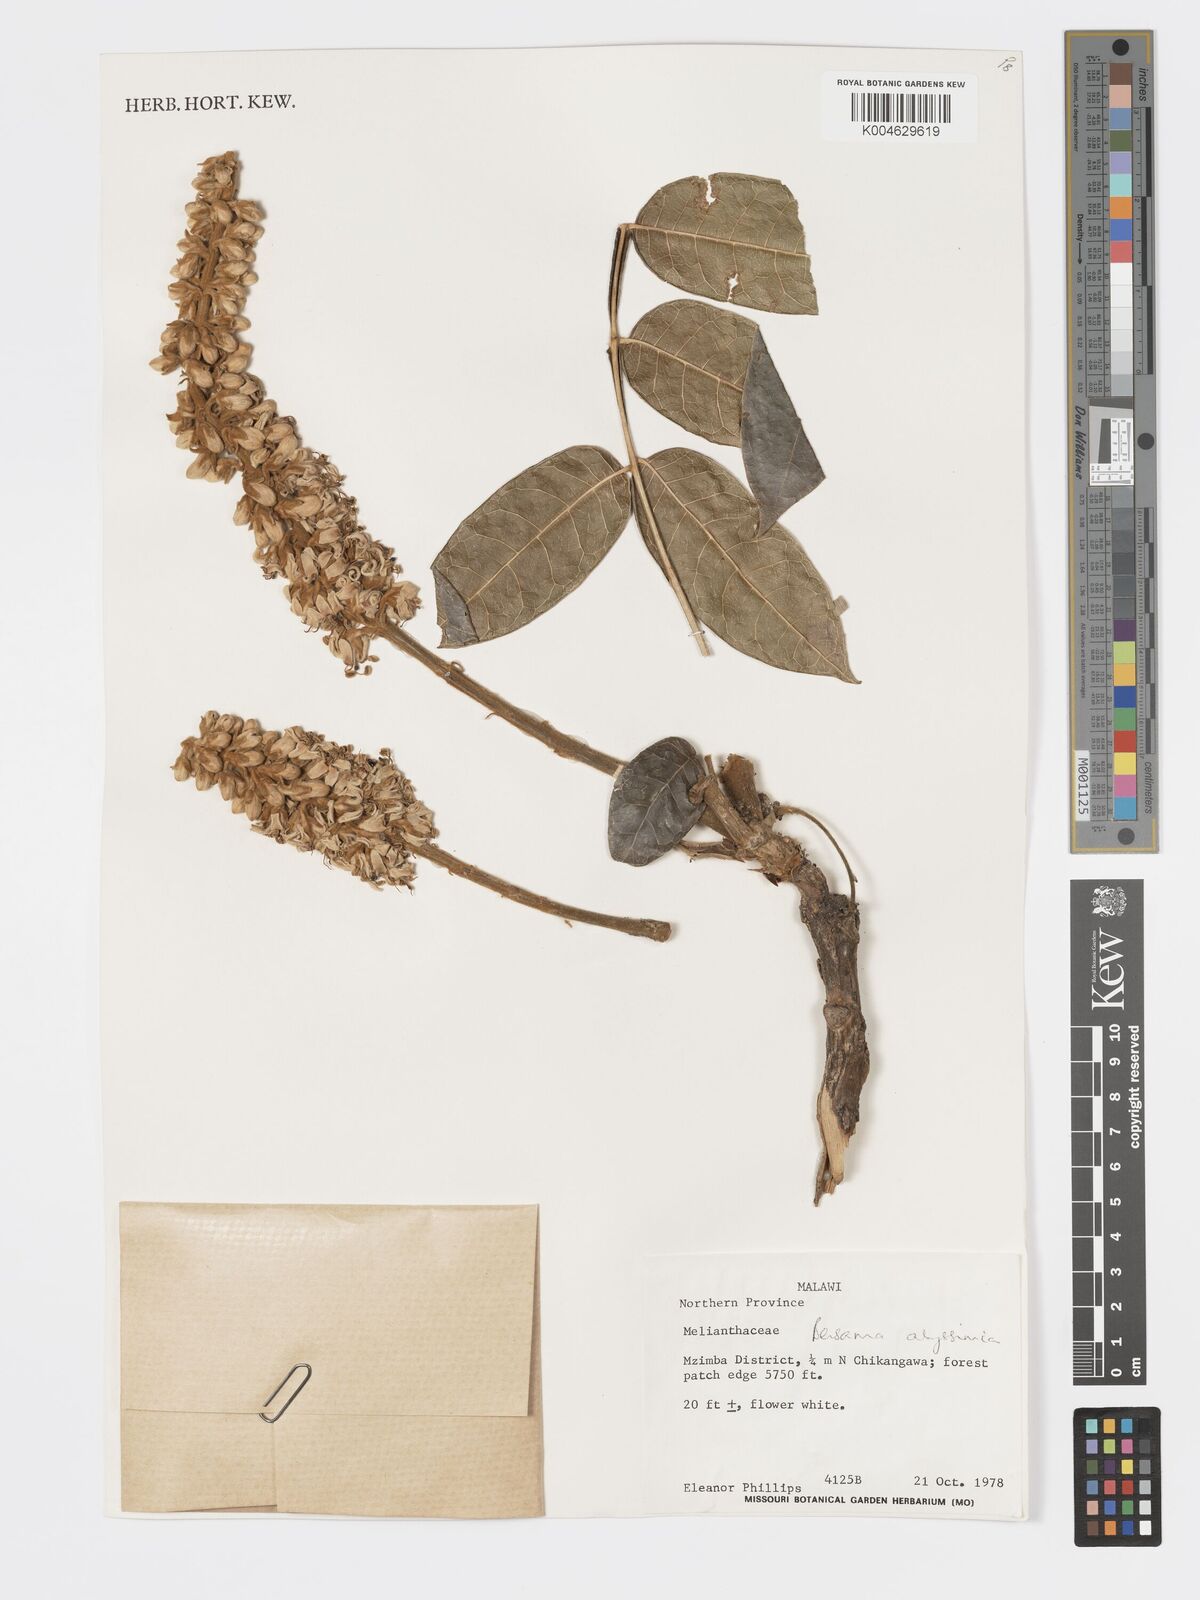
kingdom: Plantae
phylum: Tracheophyta
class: Magnoliopsida
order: Geraniales
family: Melianthaceae
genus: Bersama
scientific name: Bersama abyssinica
